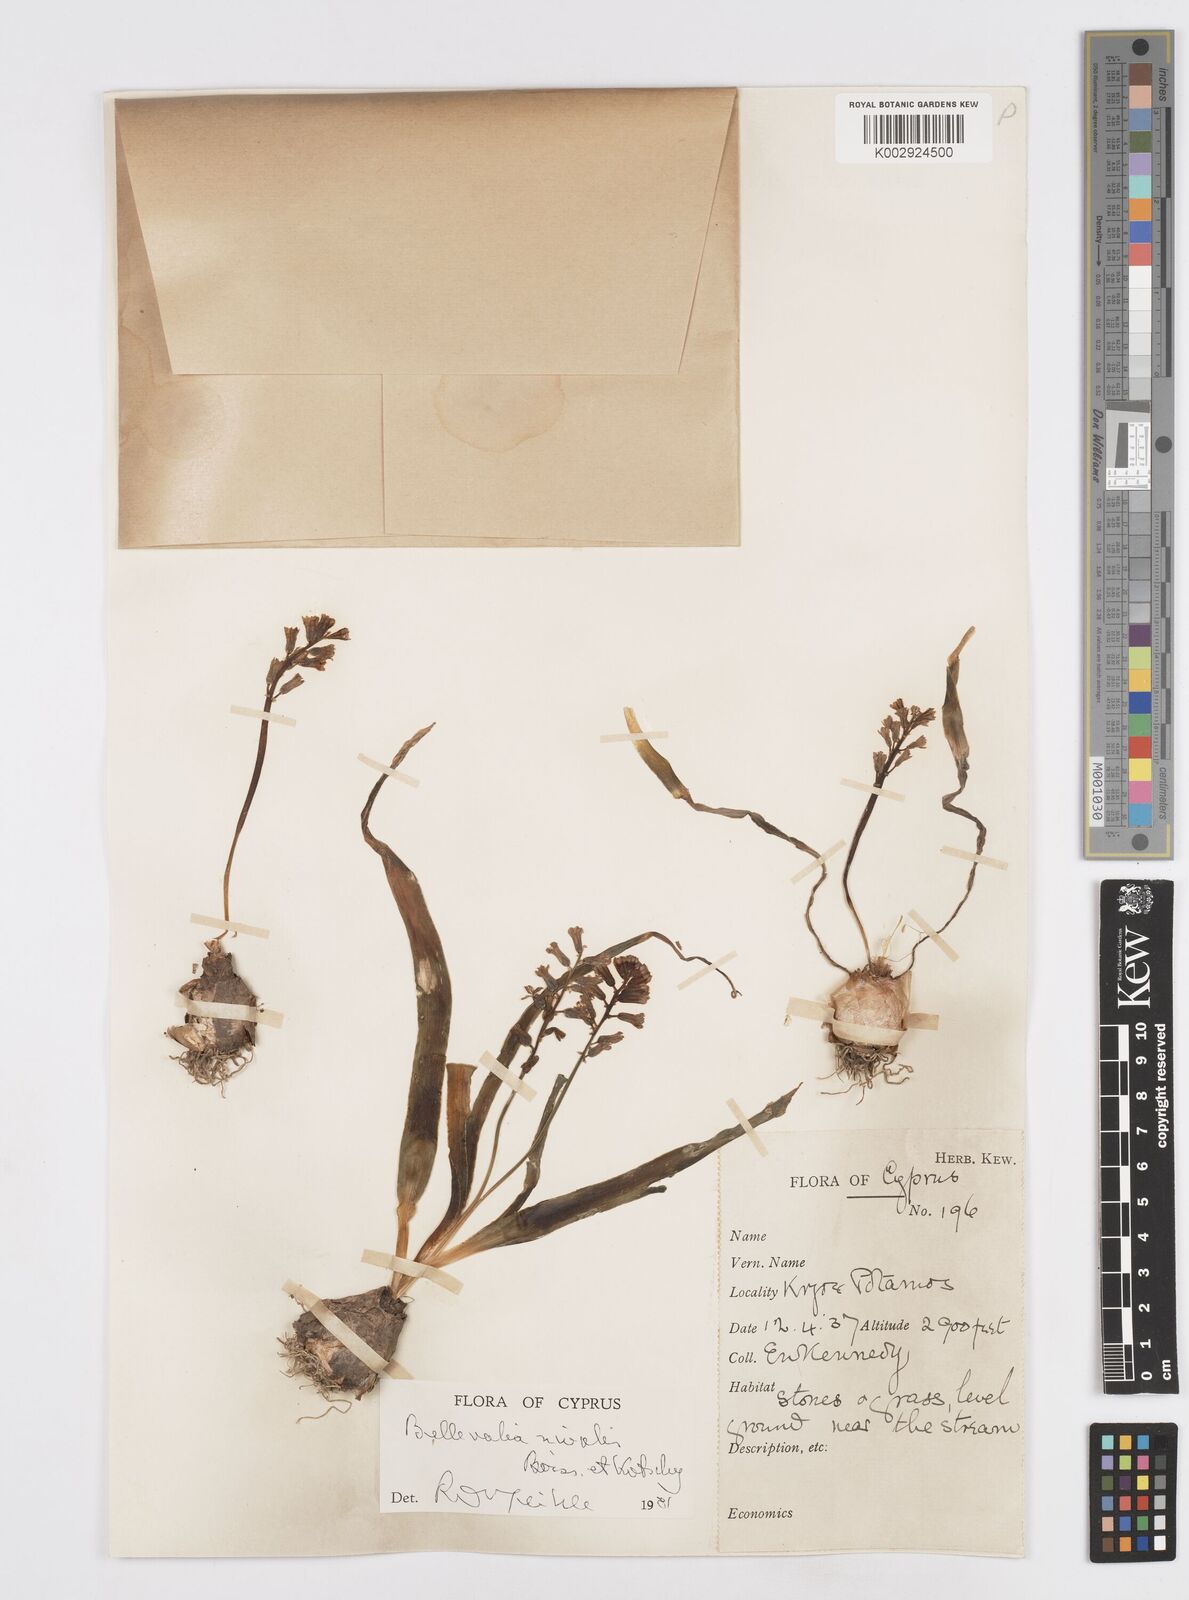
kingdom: Plantae
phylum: Tracheophyta
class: Liliopsida
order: Asparagales
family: Asparagaceae
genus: Bellevalia
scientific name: Bellevalia nivalis
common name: Snow bellevalia
